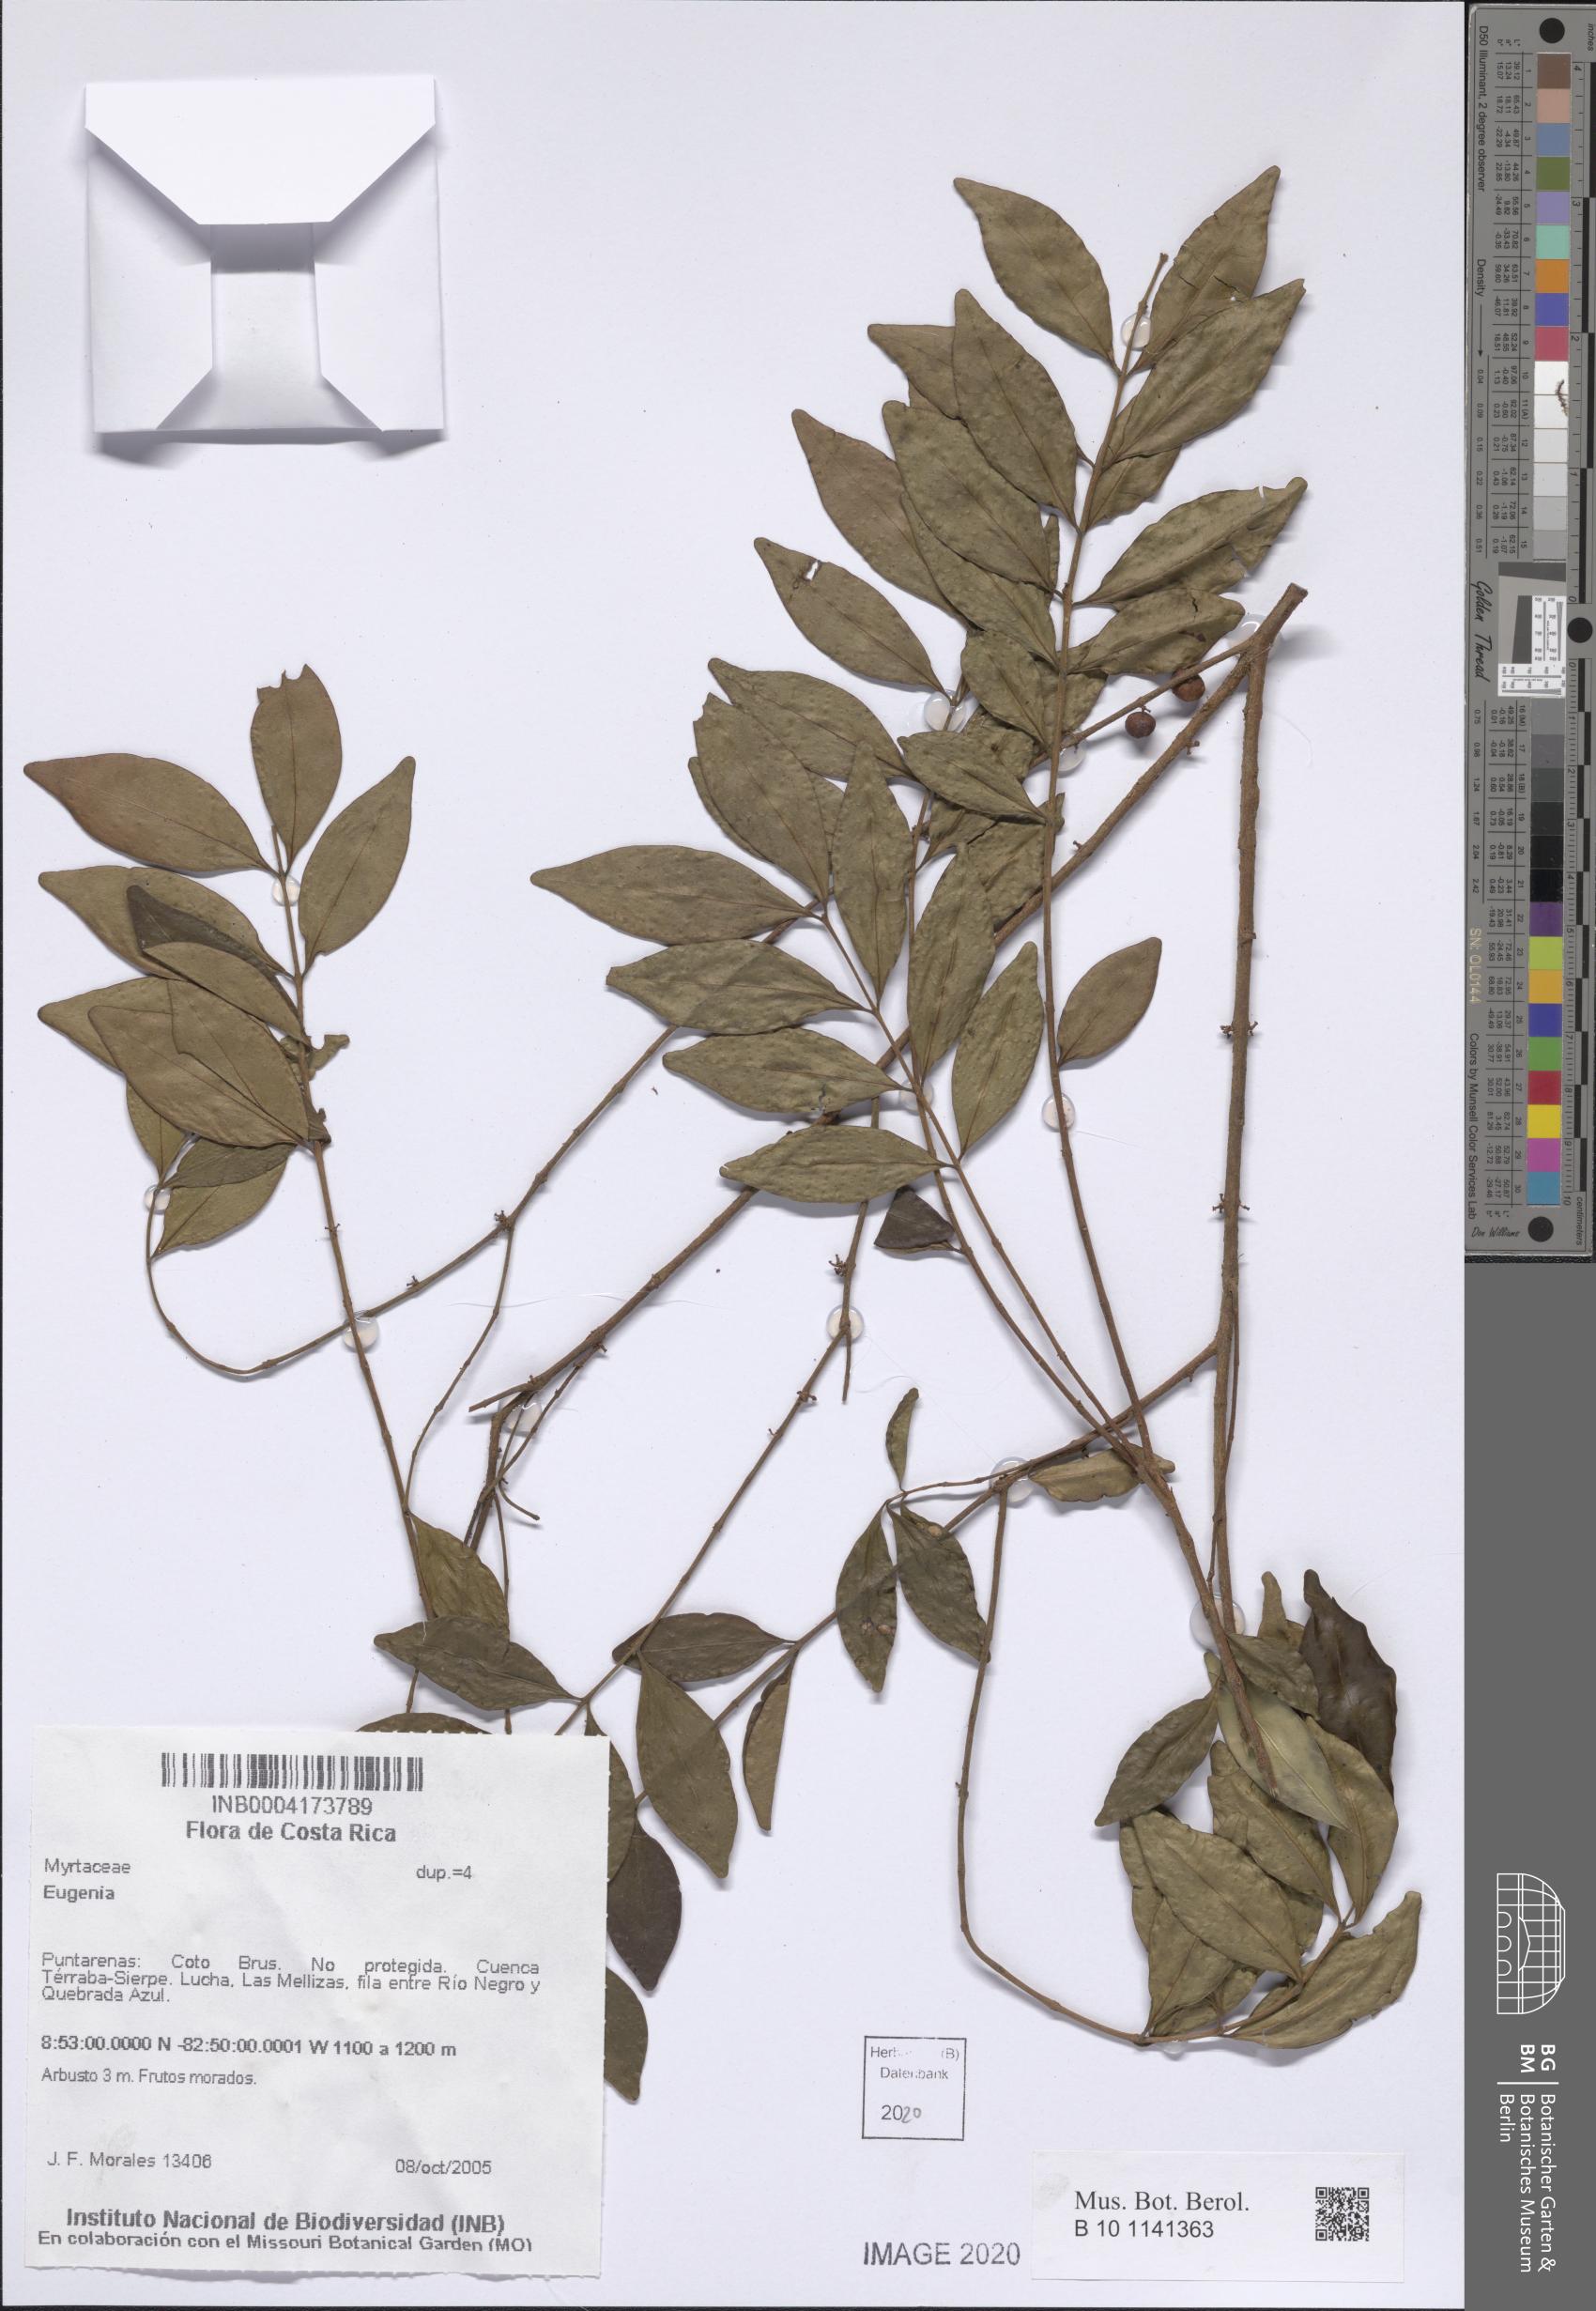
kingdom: Plantae
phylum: Tracheophyta
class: Magnoliopsida
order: Myrtales
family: Myrtaceae
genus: Eugenia
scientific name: Eugenia
